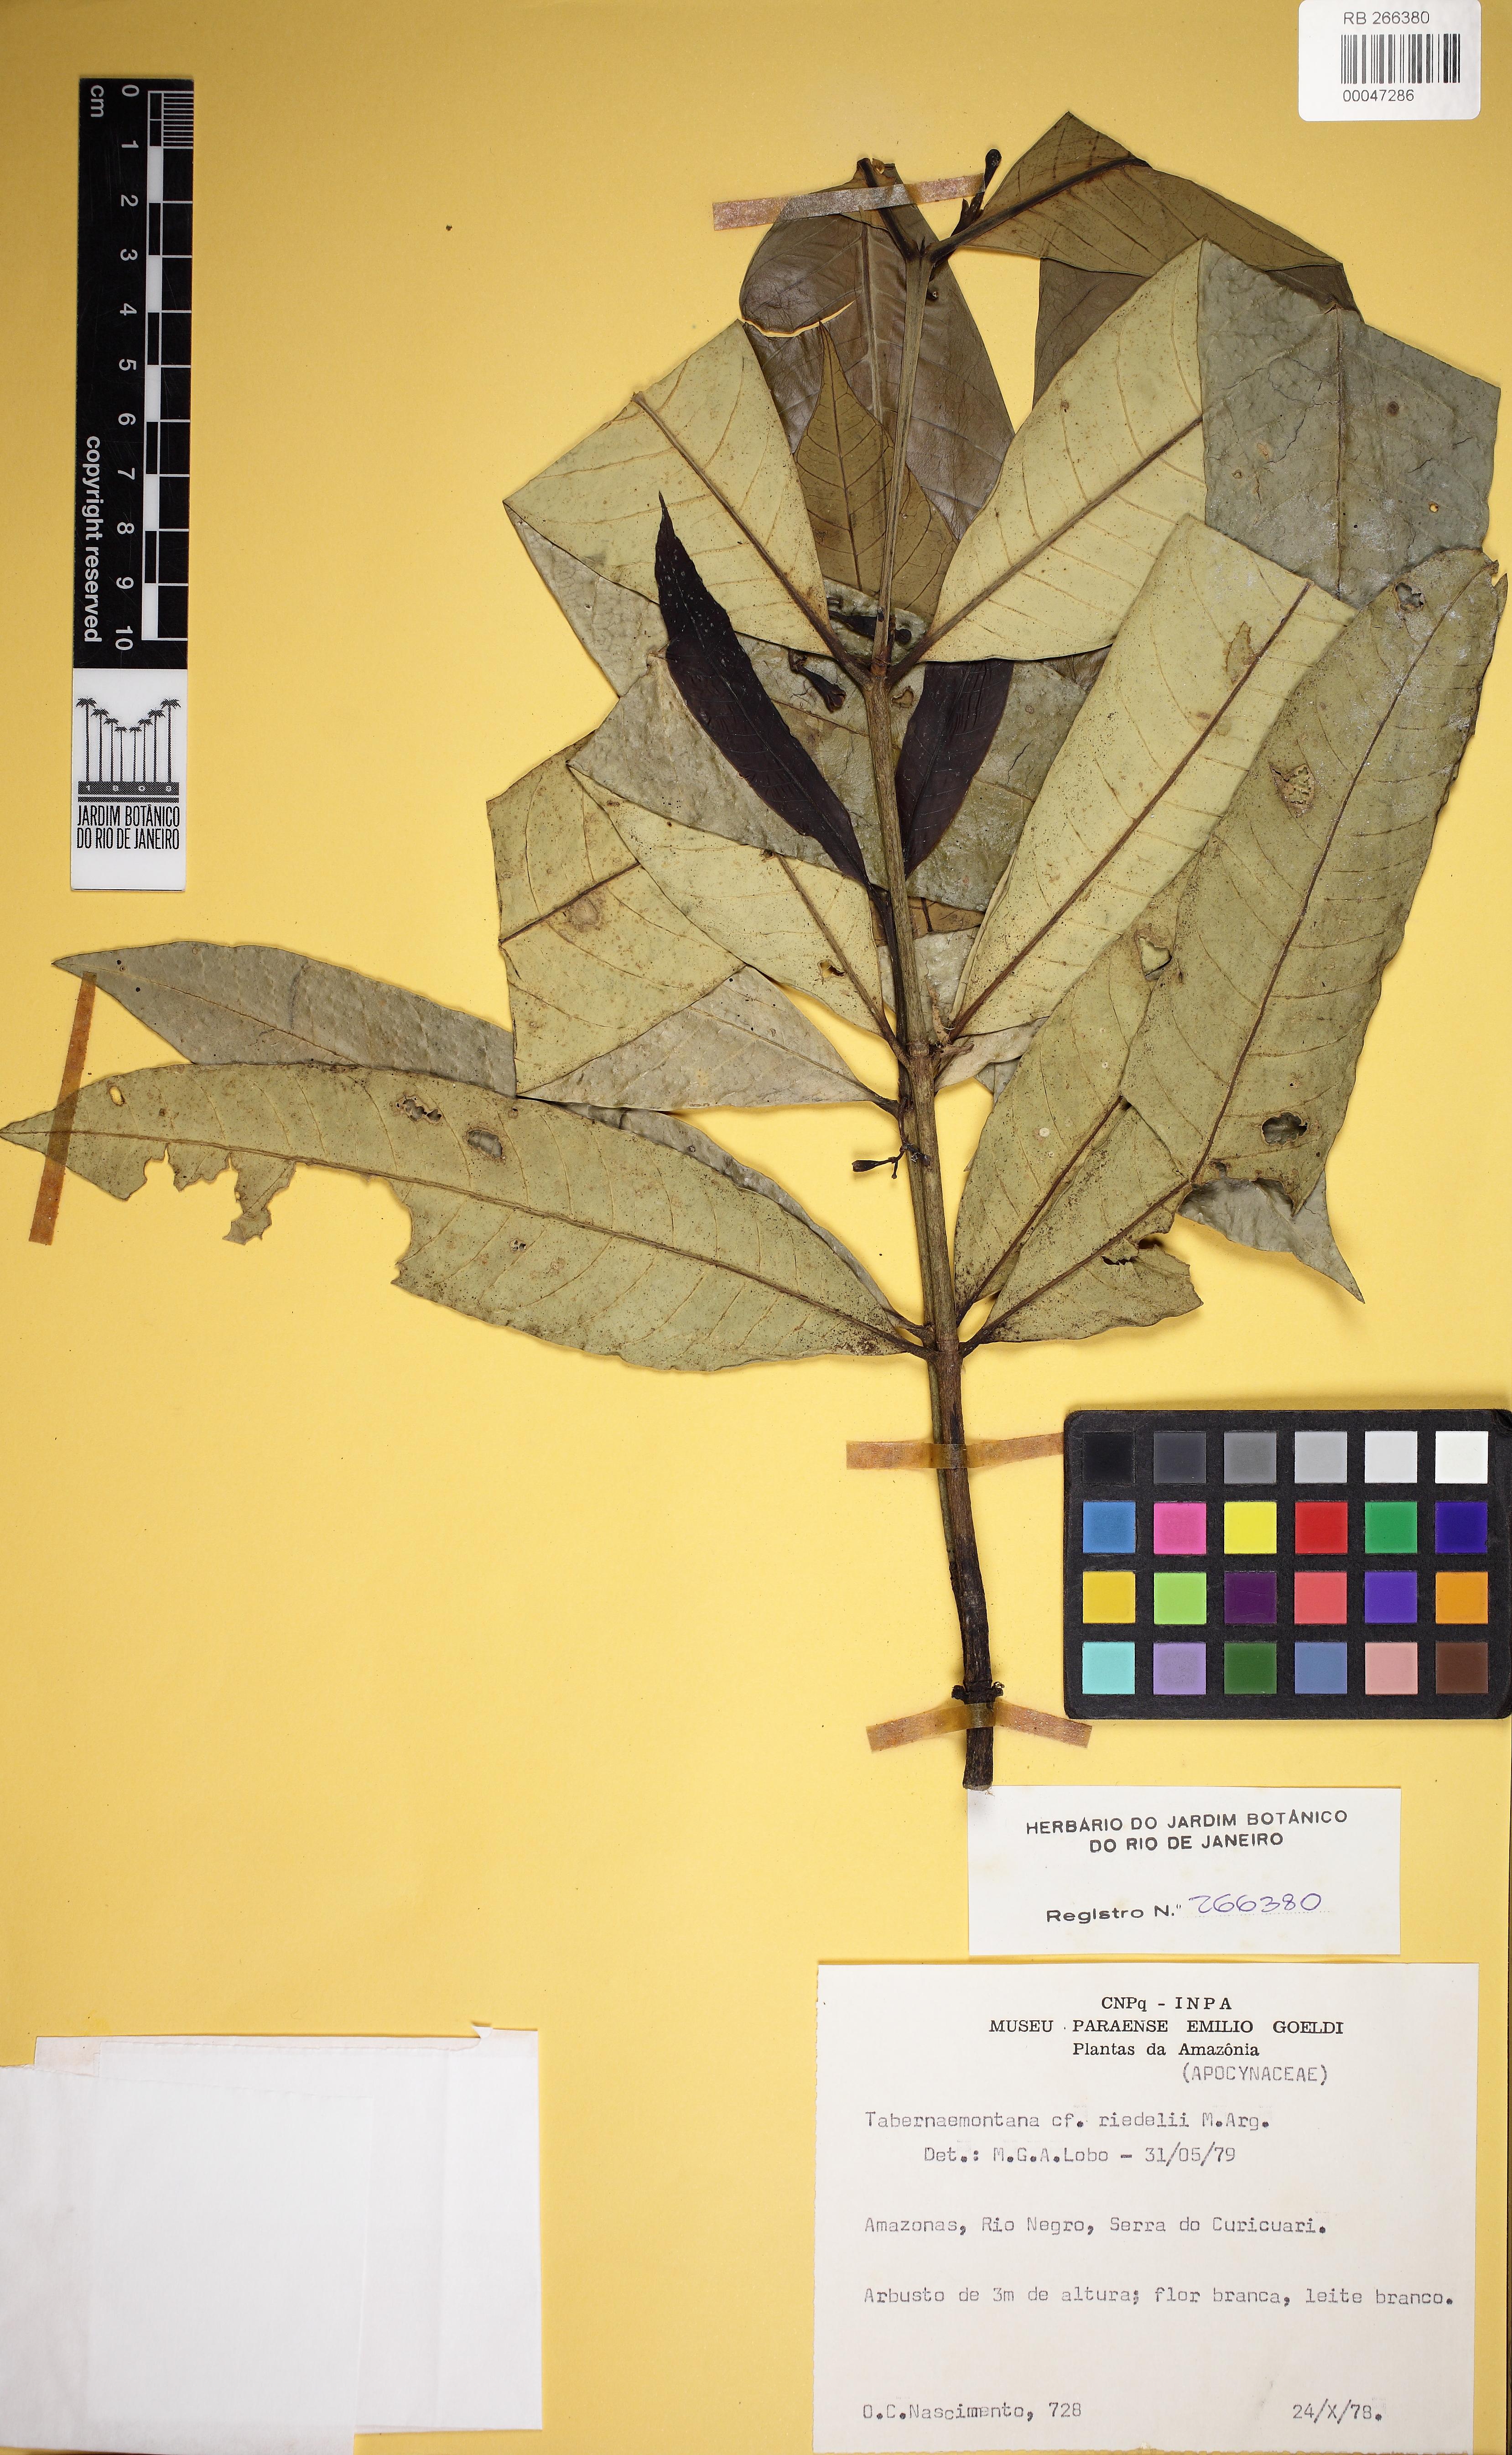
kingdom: Plantae
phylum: Tracheophyta
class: Magnoliopsida
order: Gentianales
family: Apocynaceae
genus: Tabernaemontana
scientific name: Tabernaemontana coriacea
